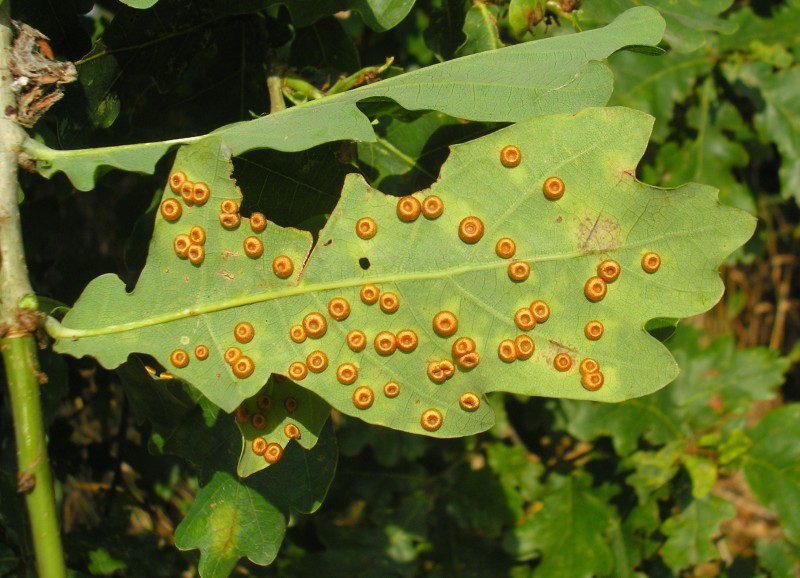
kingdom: Animalia
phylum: Arthropoda
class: Insecta
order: Hymenoptera
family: Cynipidae
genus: Neuroterus
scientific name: Neuroterus numismalis
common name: Silk-button spangle gall
